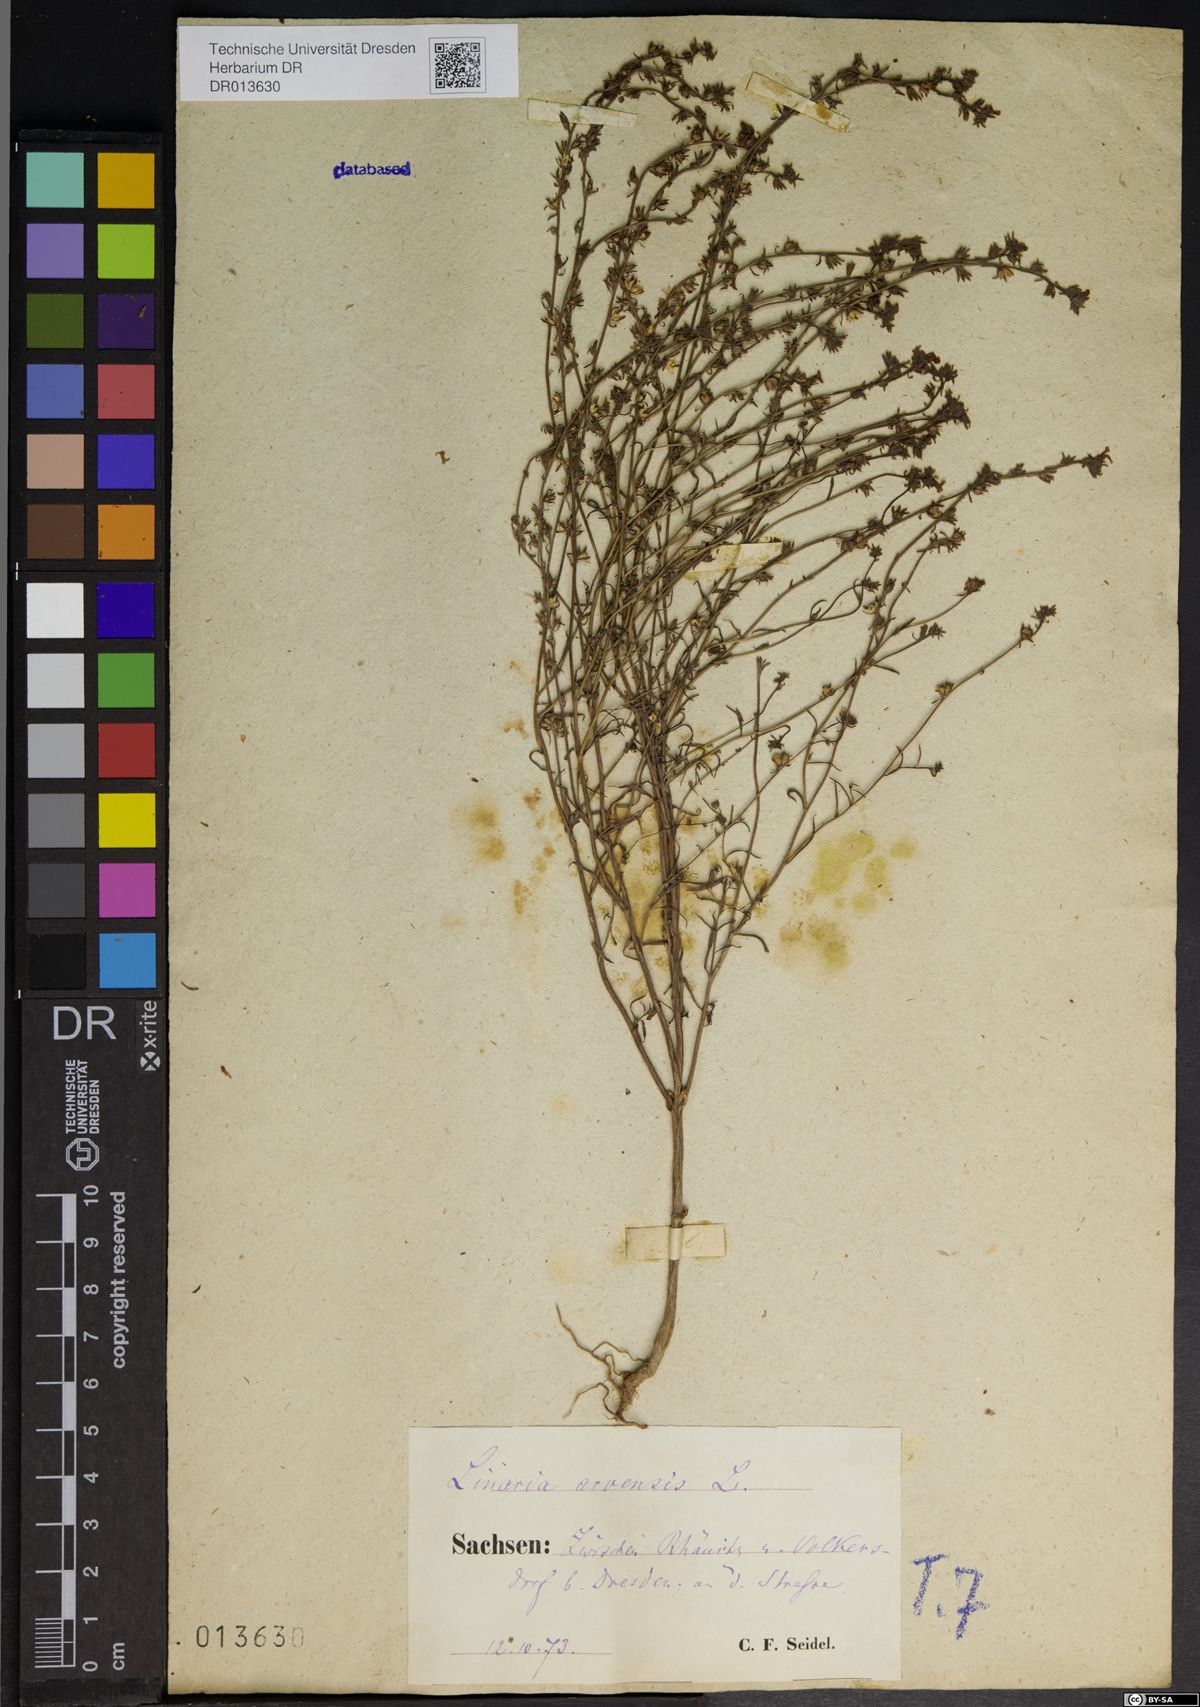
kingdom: Plantae
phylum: Tracheophyta
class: Magnoliopsida
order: Lamiales
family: Plantaginaceae
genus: Linaria
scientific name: Linaria arvensis
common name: Corn toadflax
